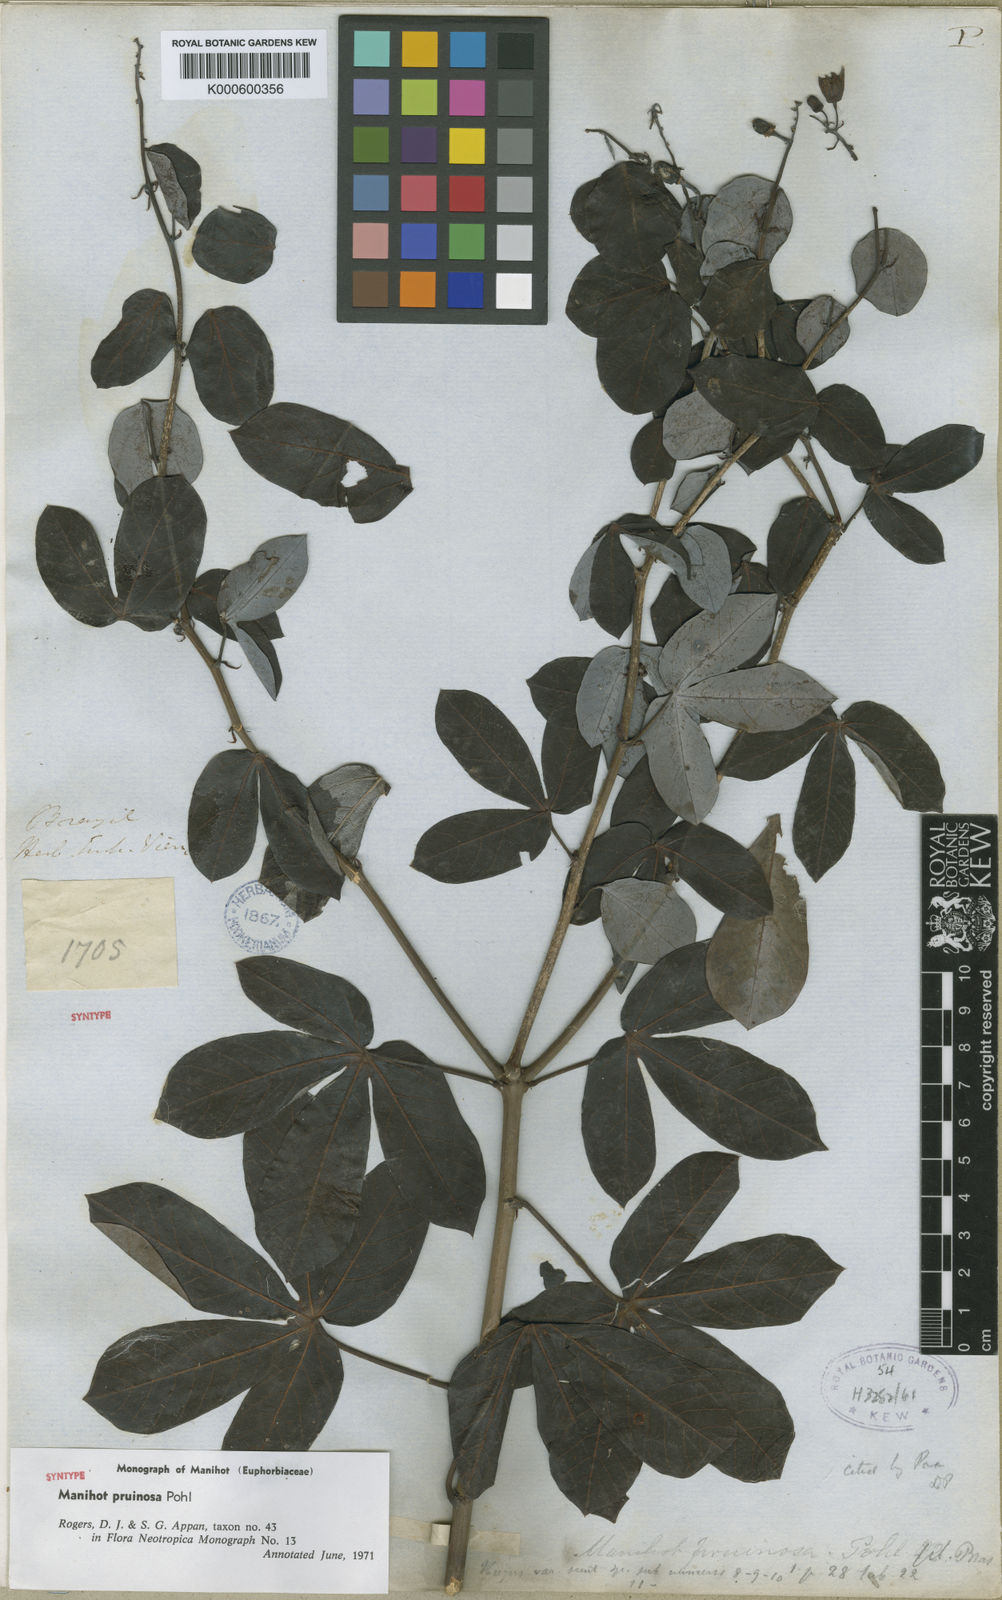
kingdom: Plantae
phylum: Tracheophyta
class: Magnoliopsida
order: Malpighiales
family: Euphorbiaceae
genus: Manihot
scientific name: Manihot pruinosa
